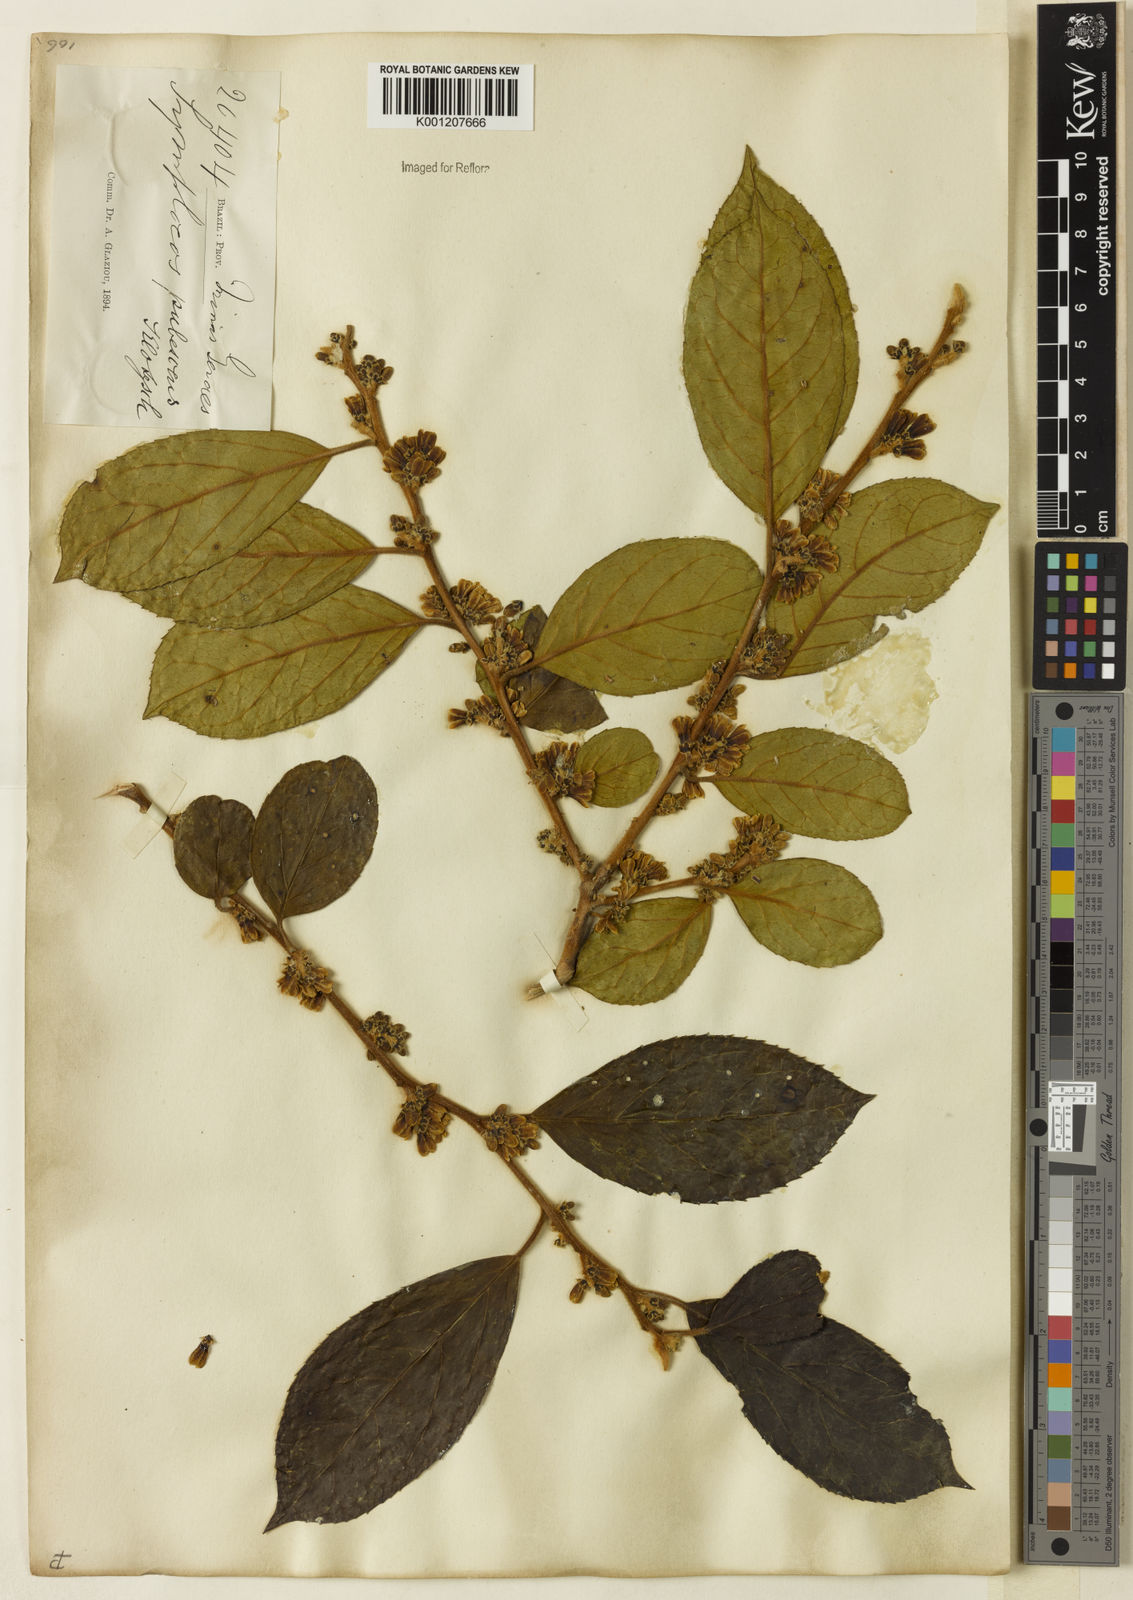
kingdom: Plantae
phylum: Tracheophyta
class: Magnoliopsida
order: Ericales
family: Symplocaceae
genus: Symplocos
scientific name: Symplocos pubescens
